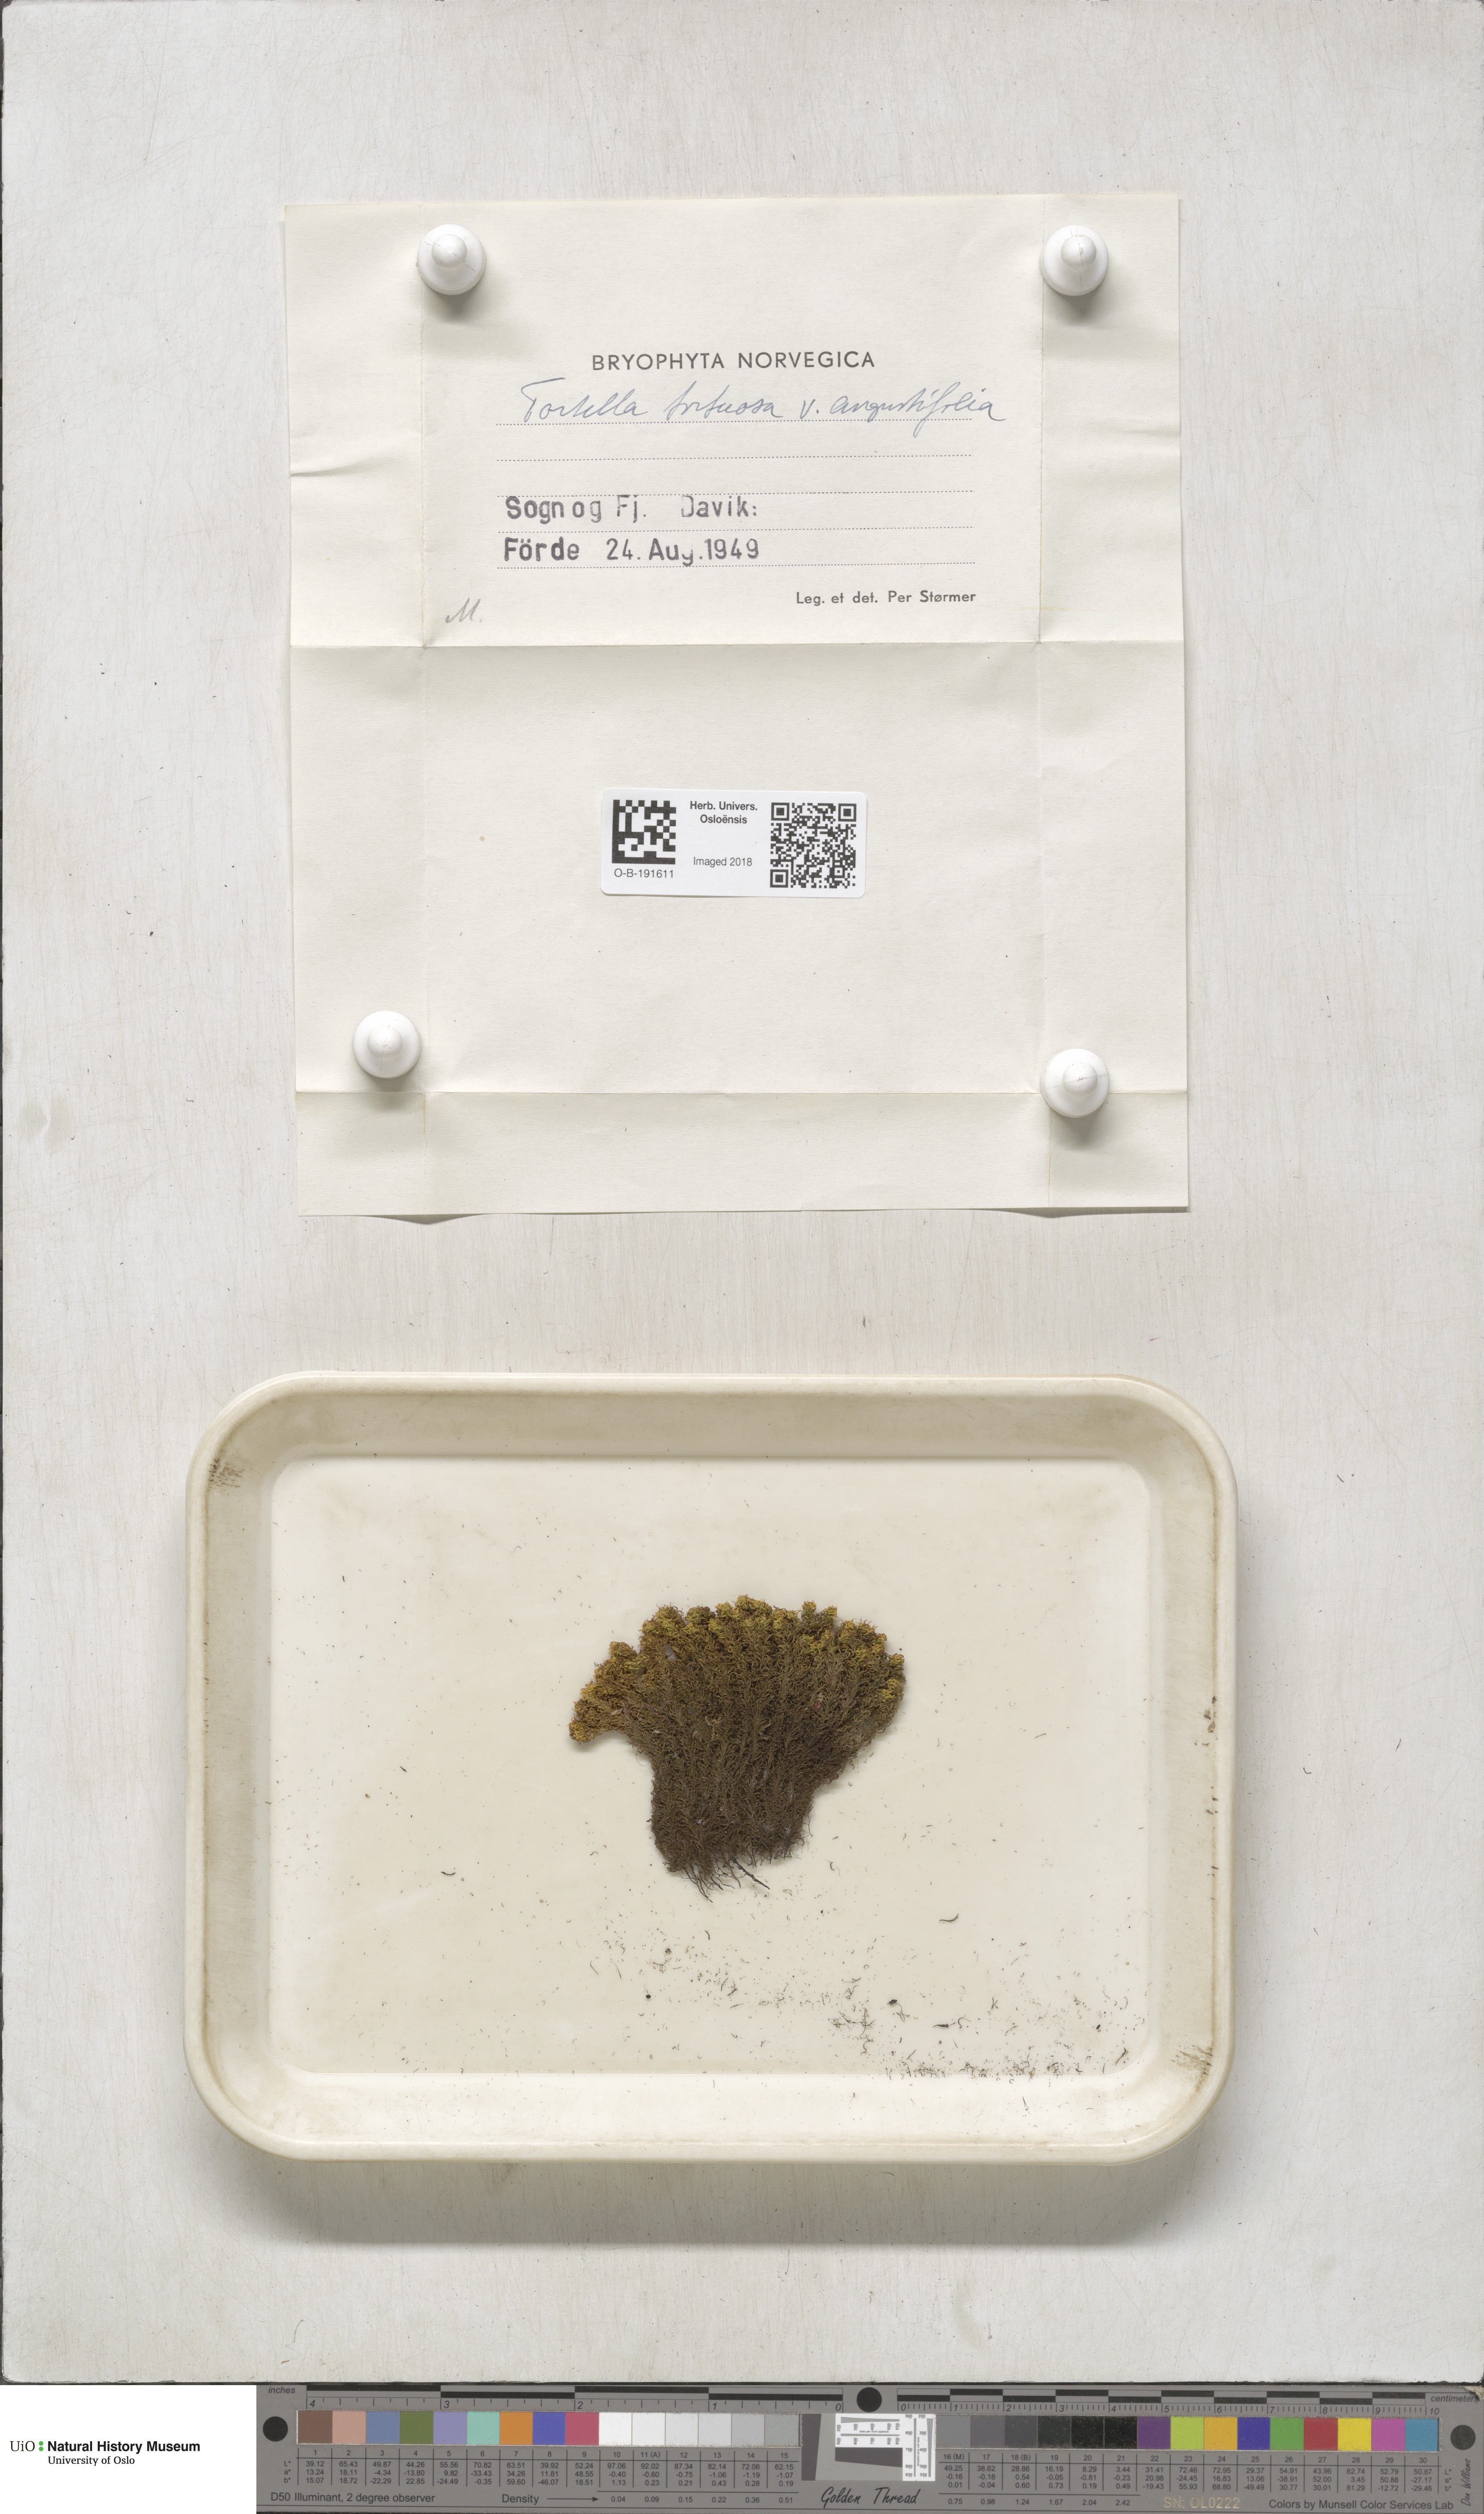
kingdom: Plantae
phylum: Bryophyta
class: Bryopsida
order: Pottiales
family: Pottiaceae
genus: Tortella
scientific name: Tortella tortuosa
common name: Frizzled crisp moss
